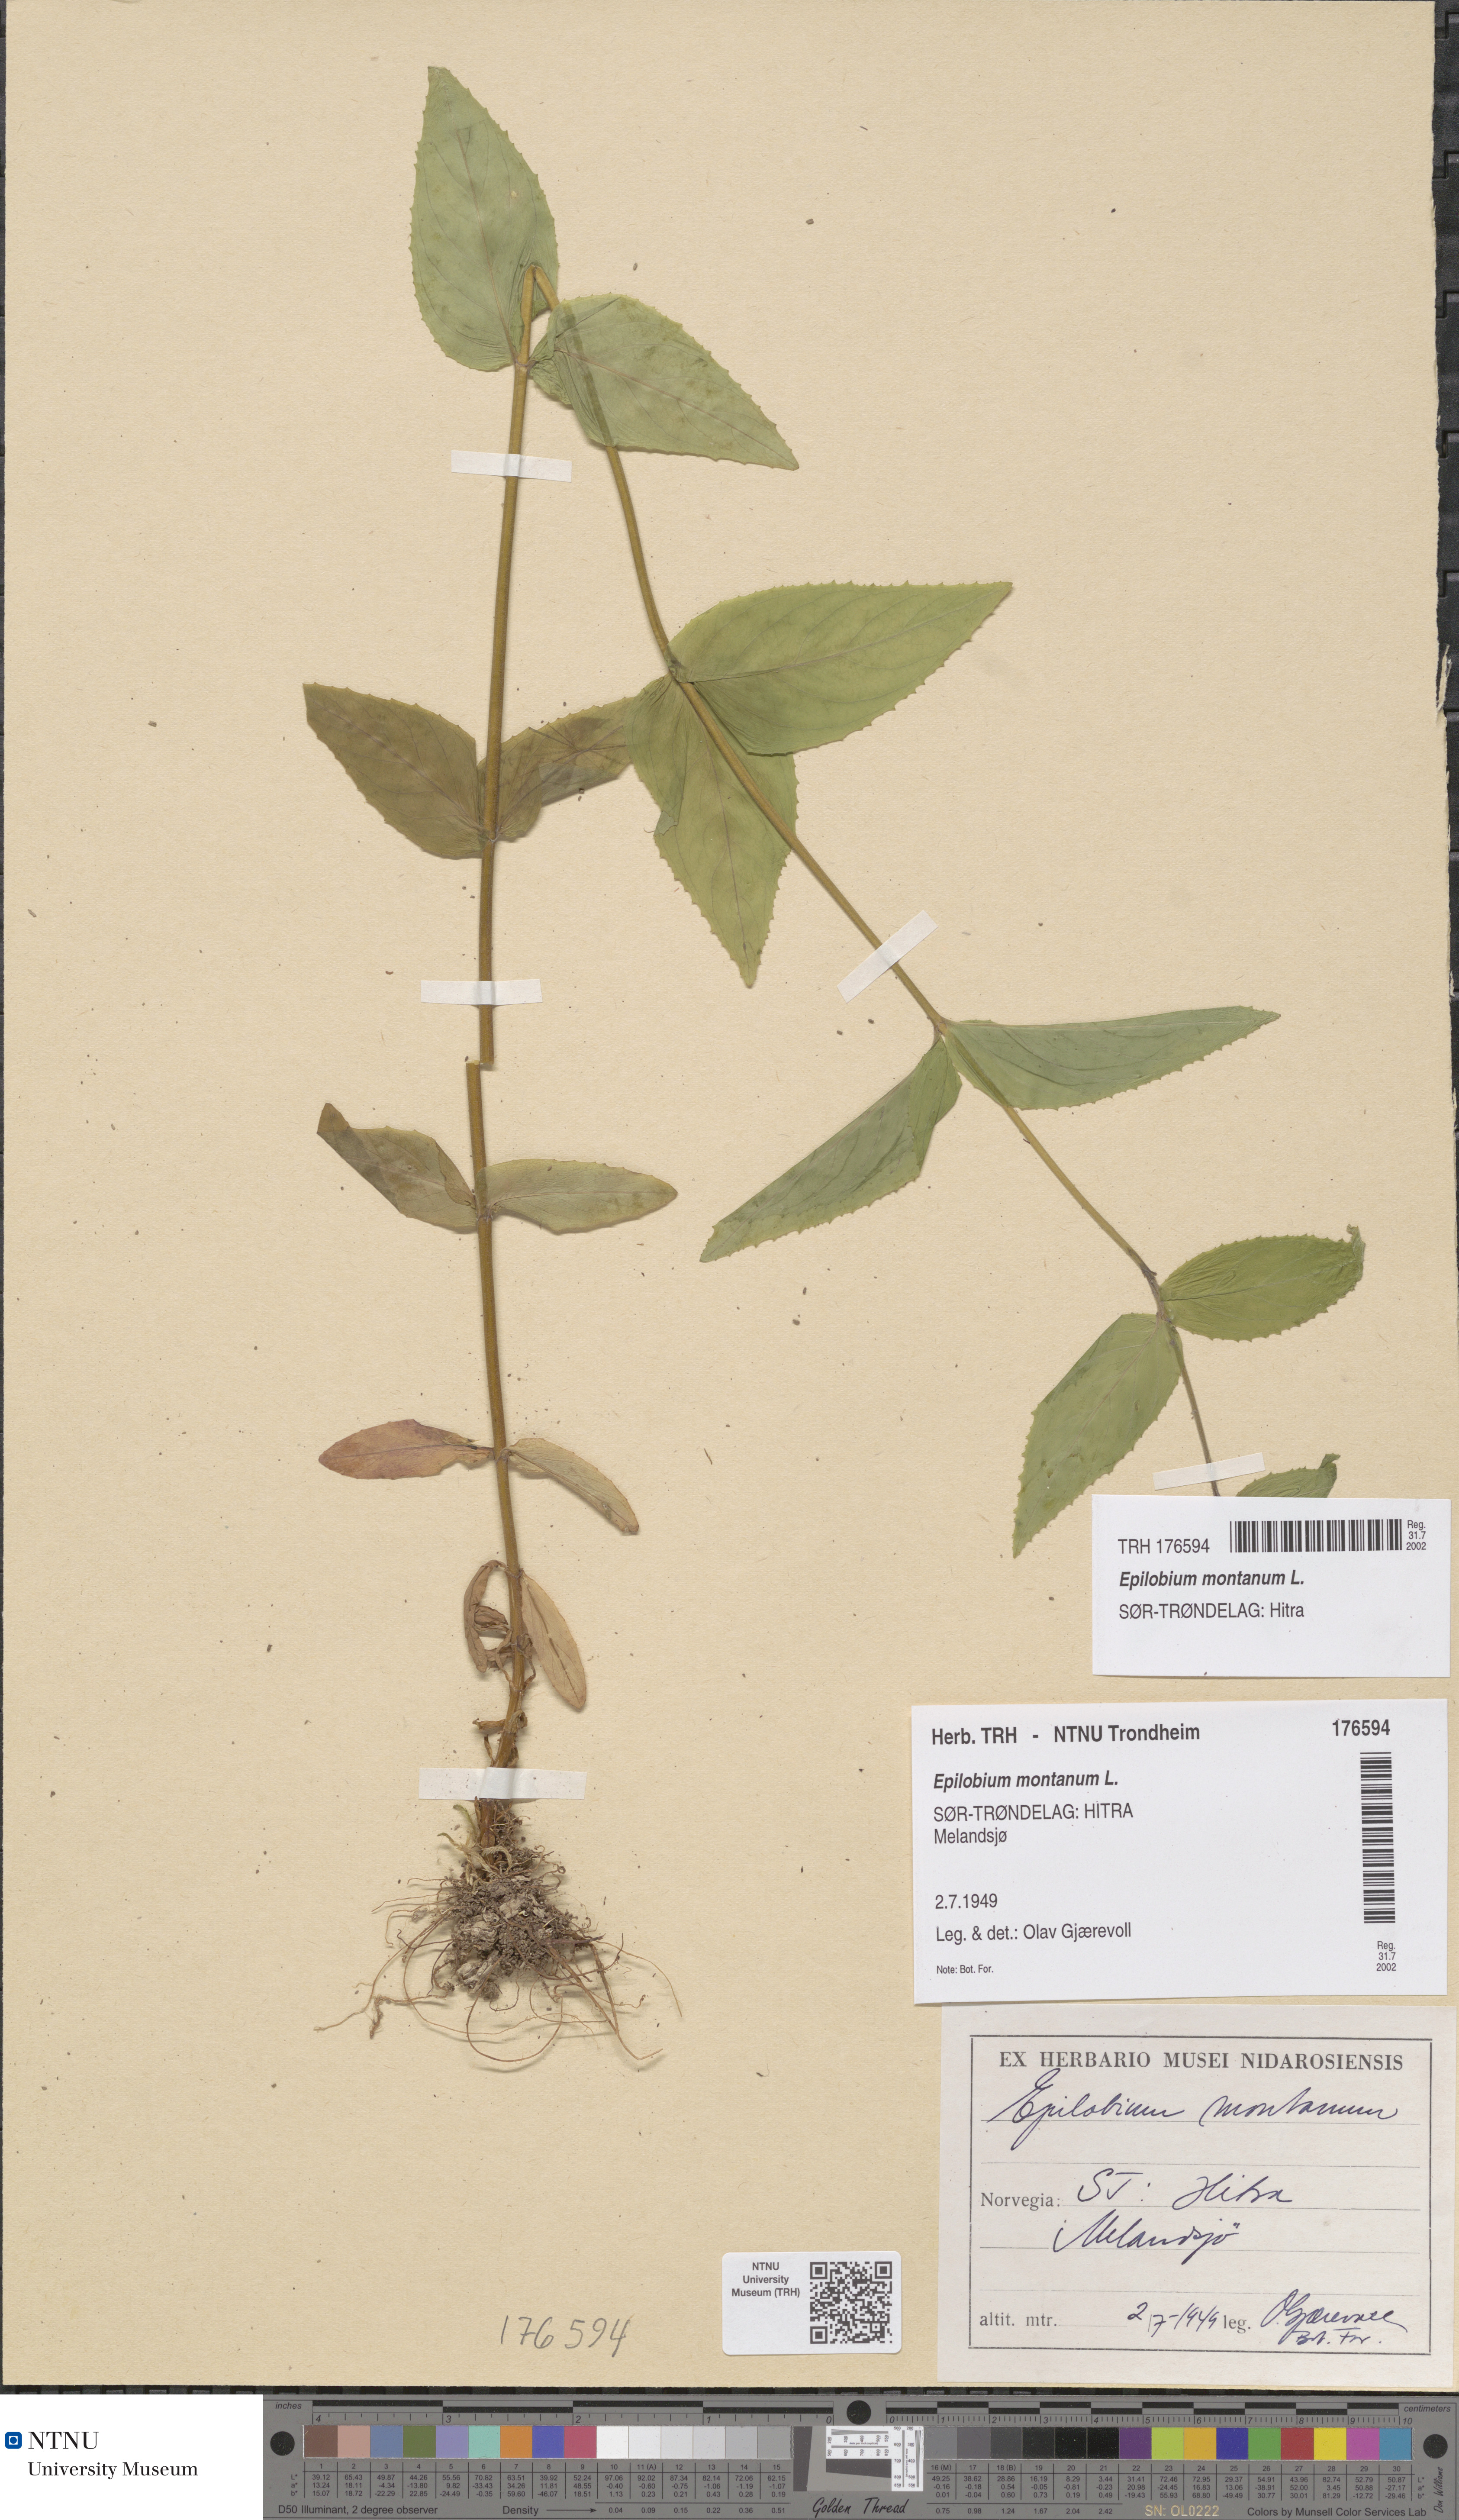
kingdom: Plantae
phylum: Tracheophyta
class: Magnoliopsida
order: Myrtales
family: Onagraceae
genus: Epilobium
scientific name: Epilobium montanum
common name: Broad-leaved willowherb
